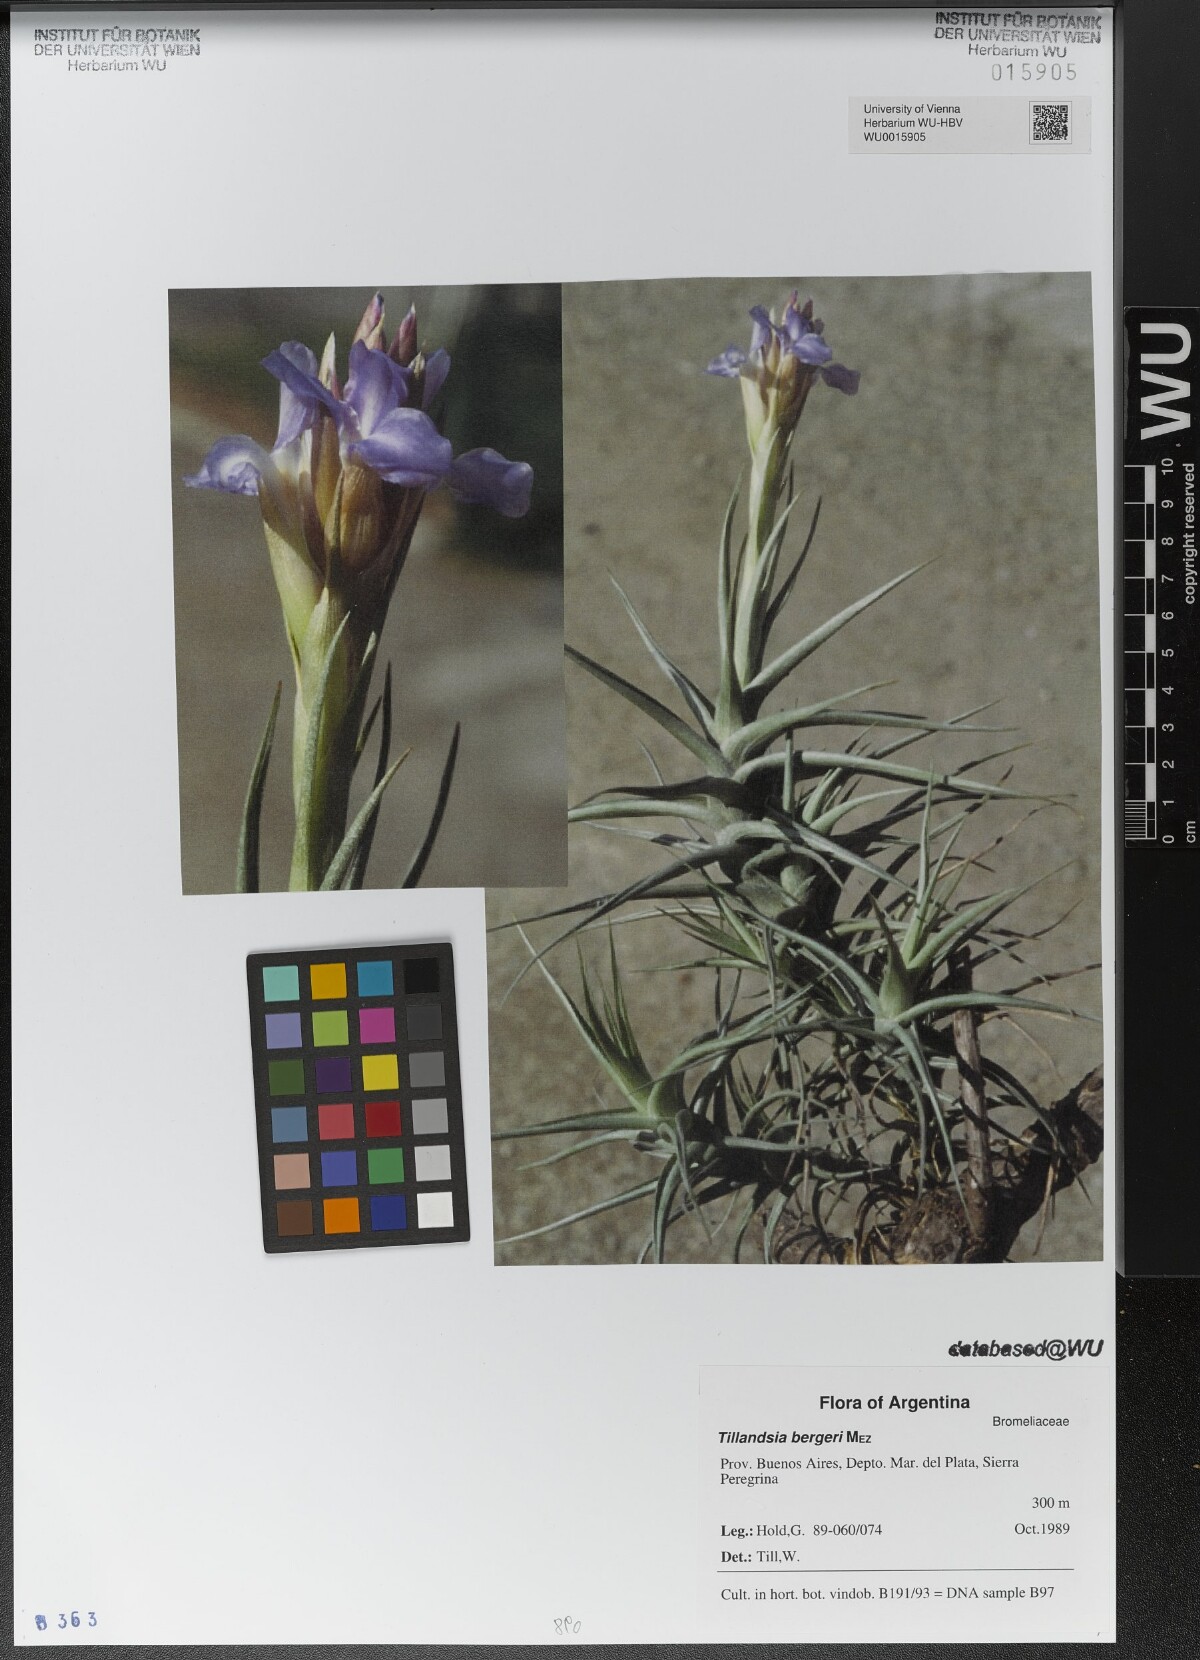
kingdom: Plantae
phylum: Tracheophyta
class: Liliopsida
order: Poales
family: Bromeliaceae
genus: Tillandsia
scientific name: Tillandsia bergeri
